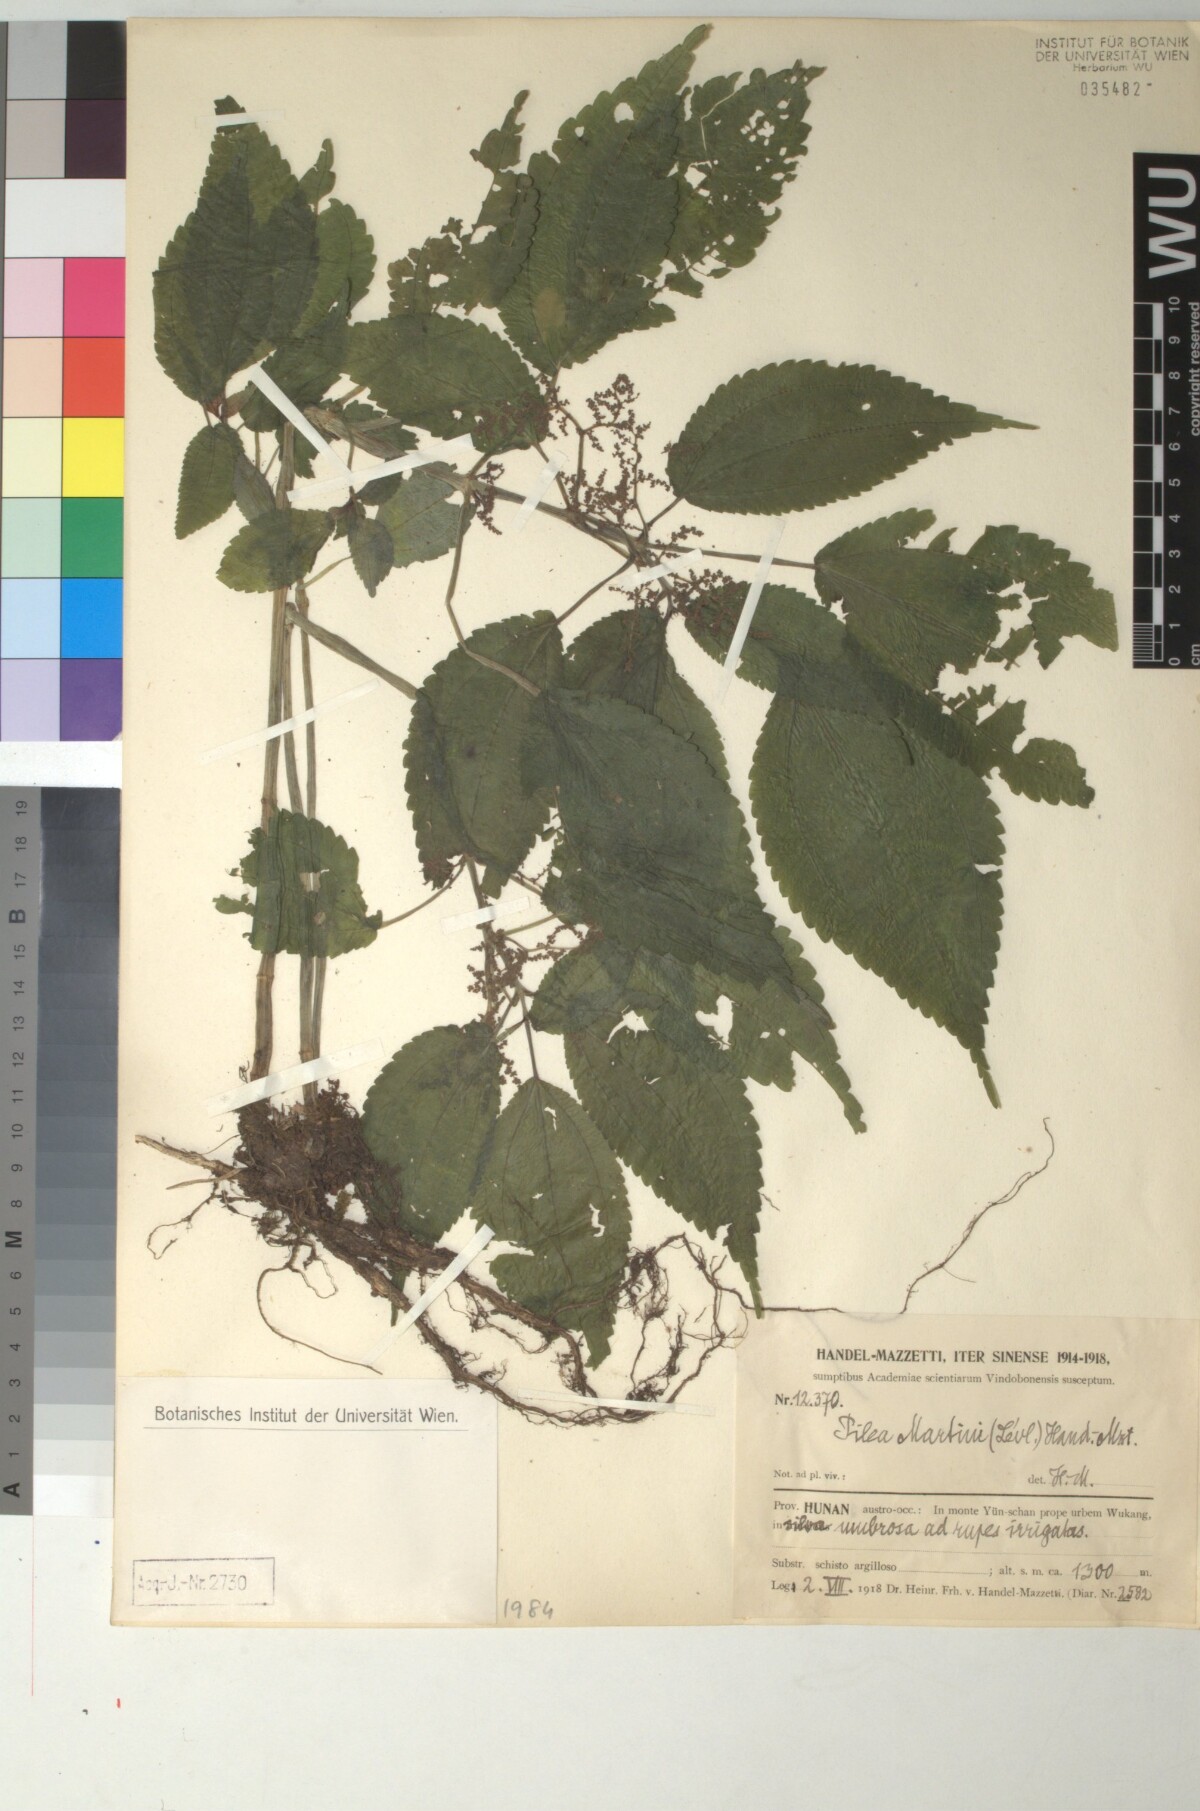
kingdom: Plantae
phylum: Tracheophyta
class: Magnoliopsida
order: Rosales
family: Urticaceae
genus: Pilea
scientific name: Pilea martini
